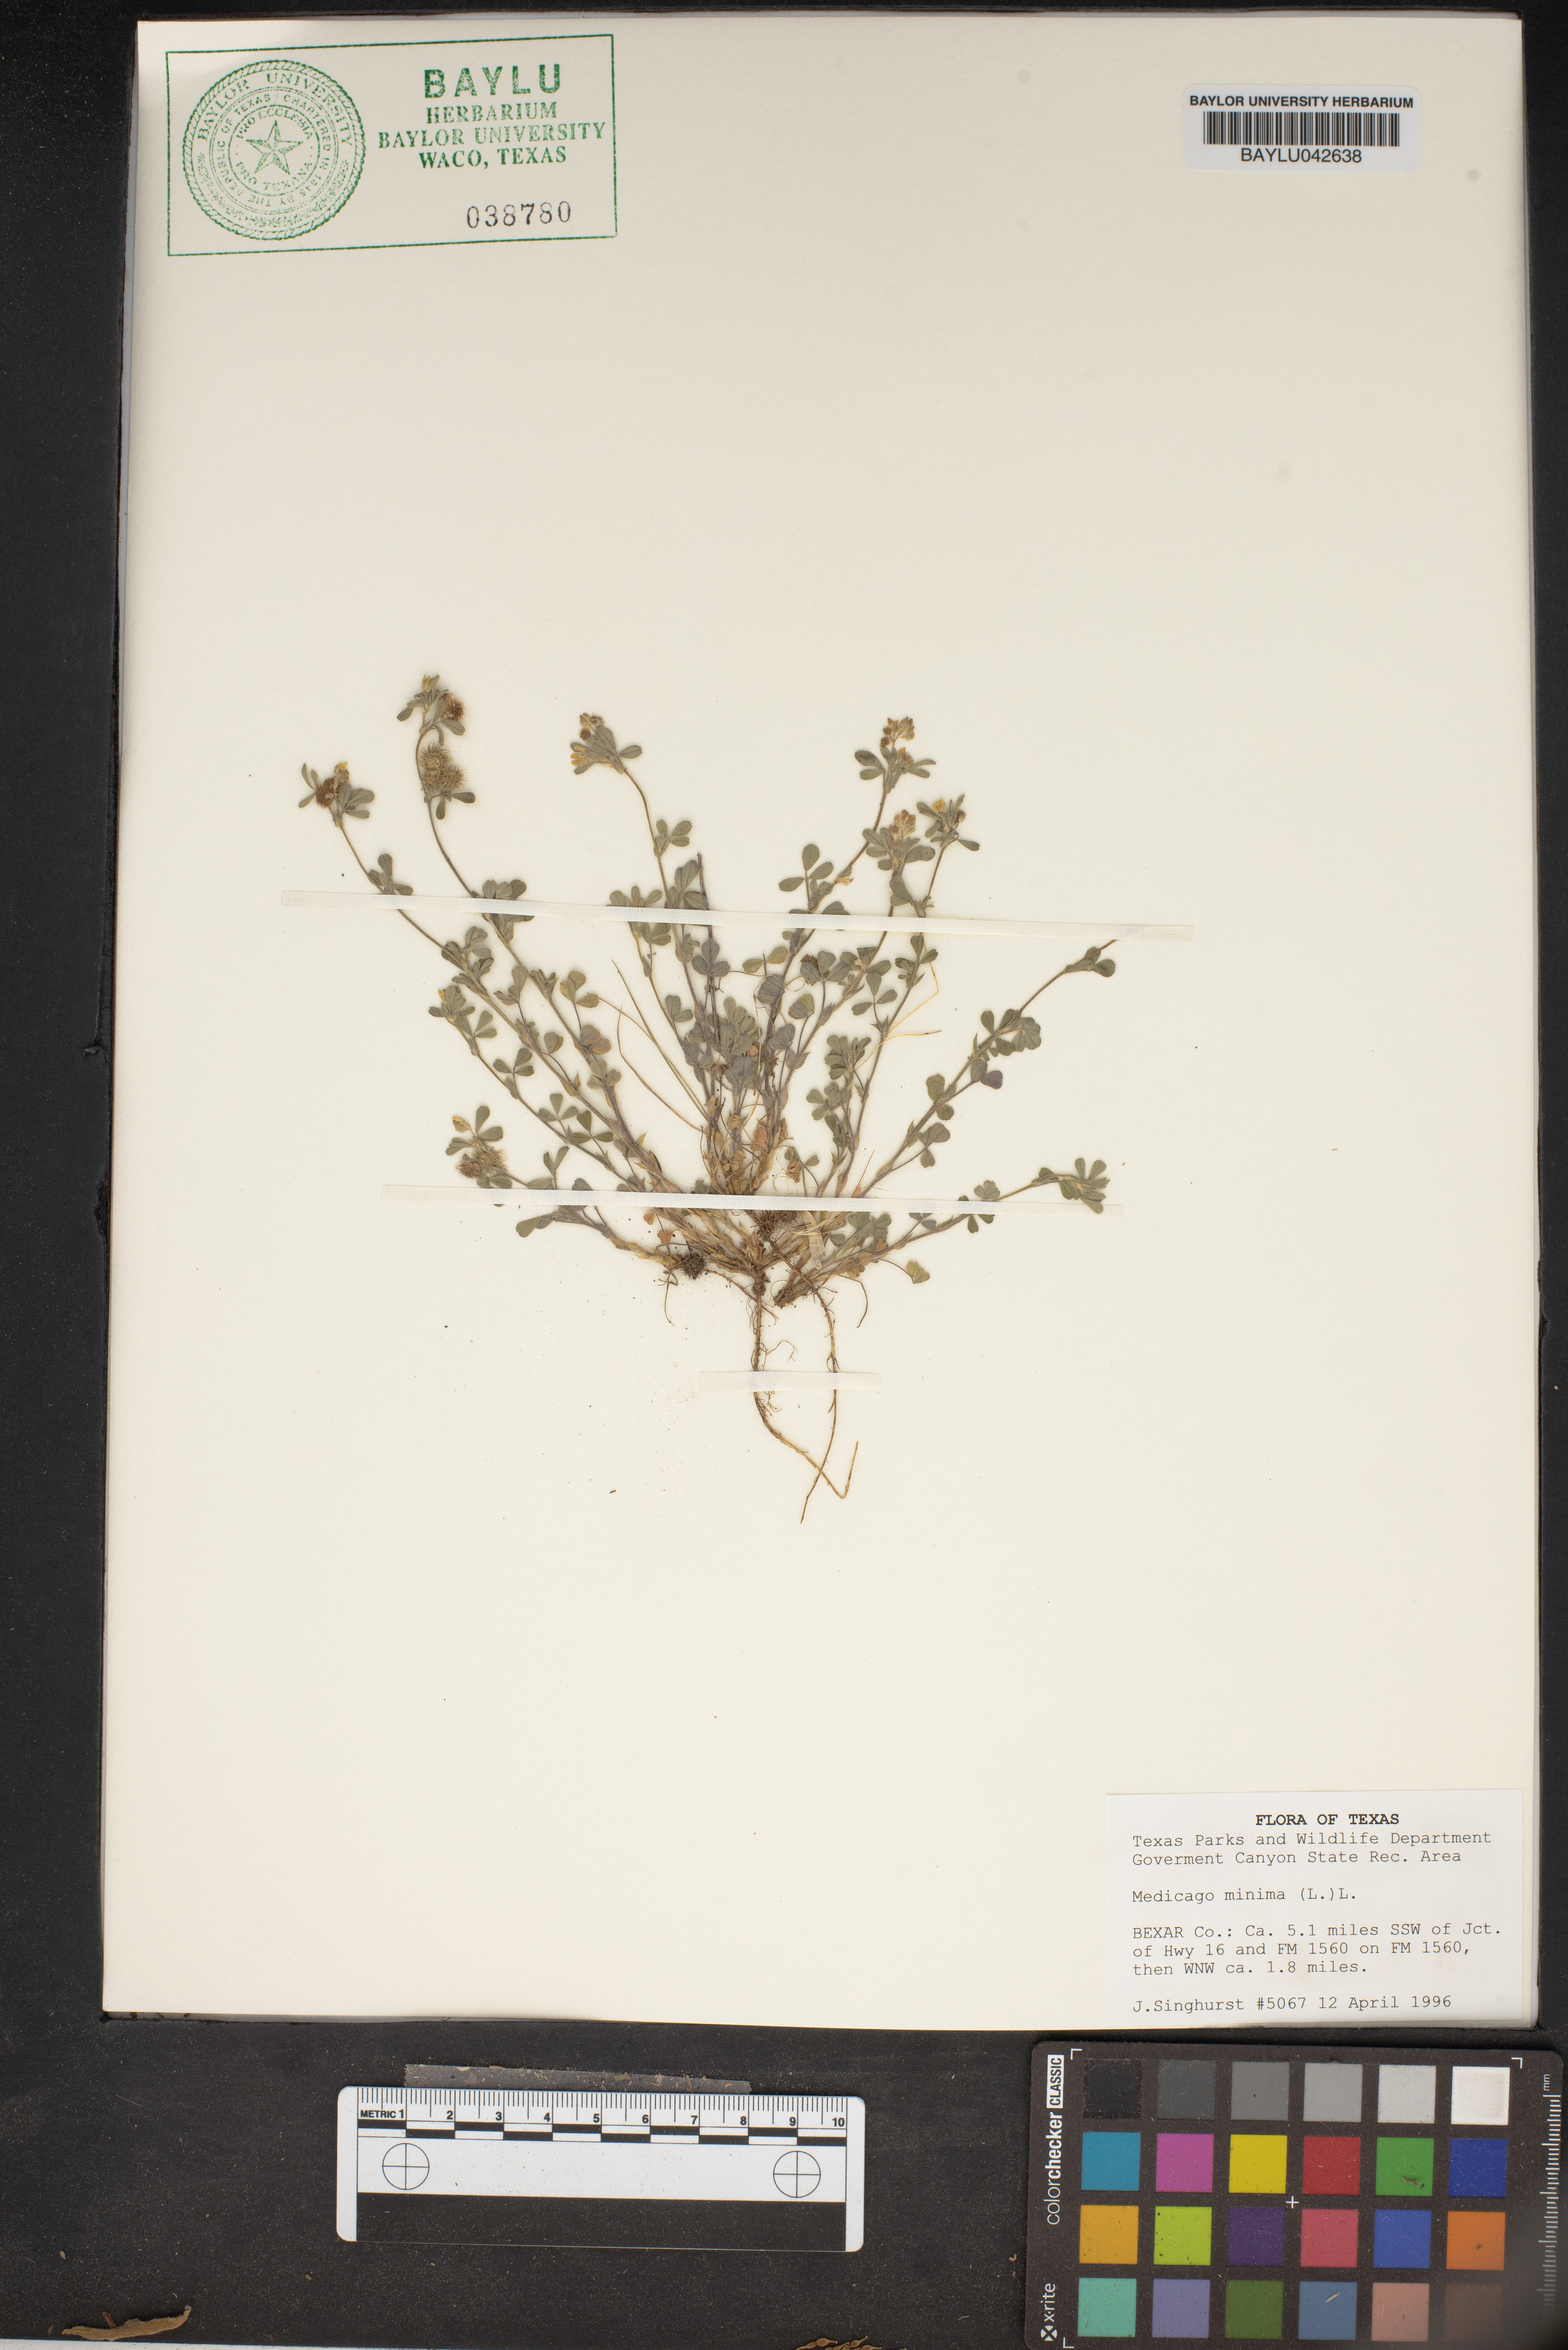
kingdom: Plantae
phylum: Tracheophyta
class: Magnoliopsida
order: Fabales
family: Fabaceae
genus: Medicago
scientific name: Medicago minima
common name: Little bur-clover
